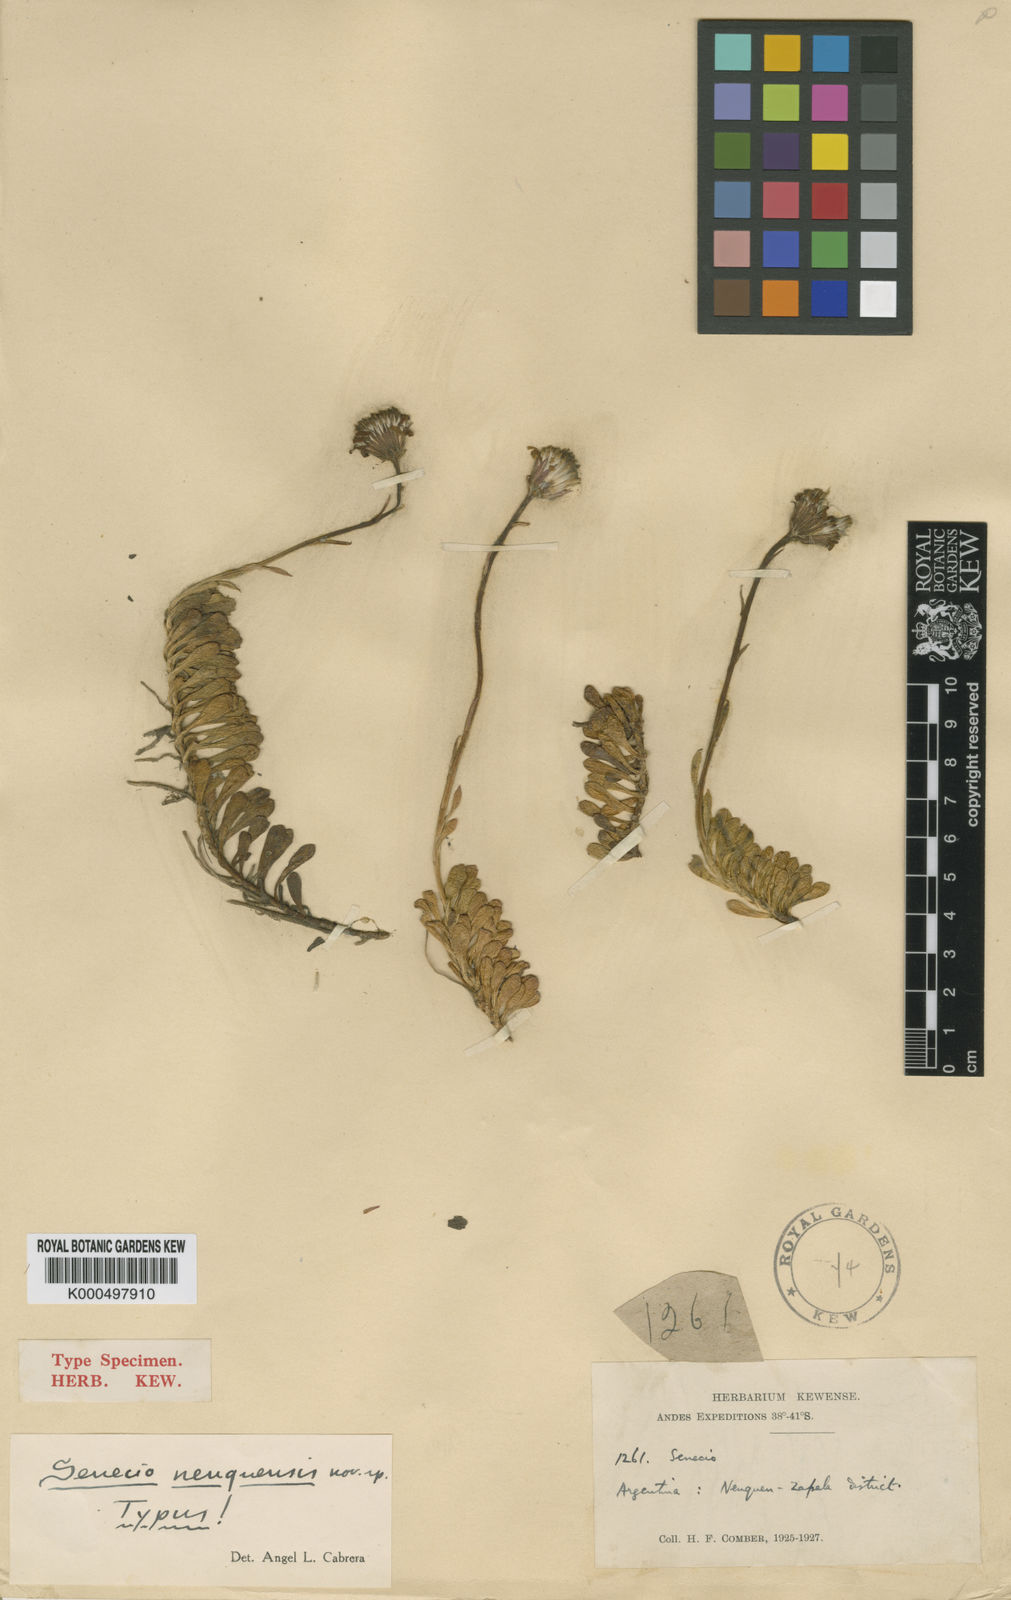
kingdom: Plantae
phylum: Tracheophyta
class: Magnoliopsida
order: Asterales
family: Asteraceae
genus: Senecio
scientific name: Senecio triodon
